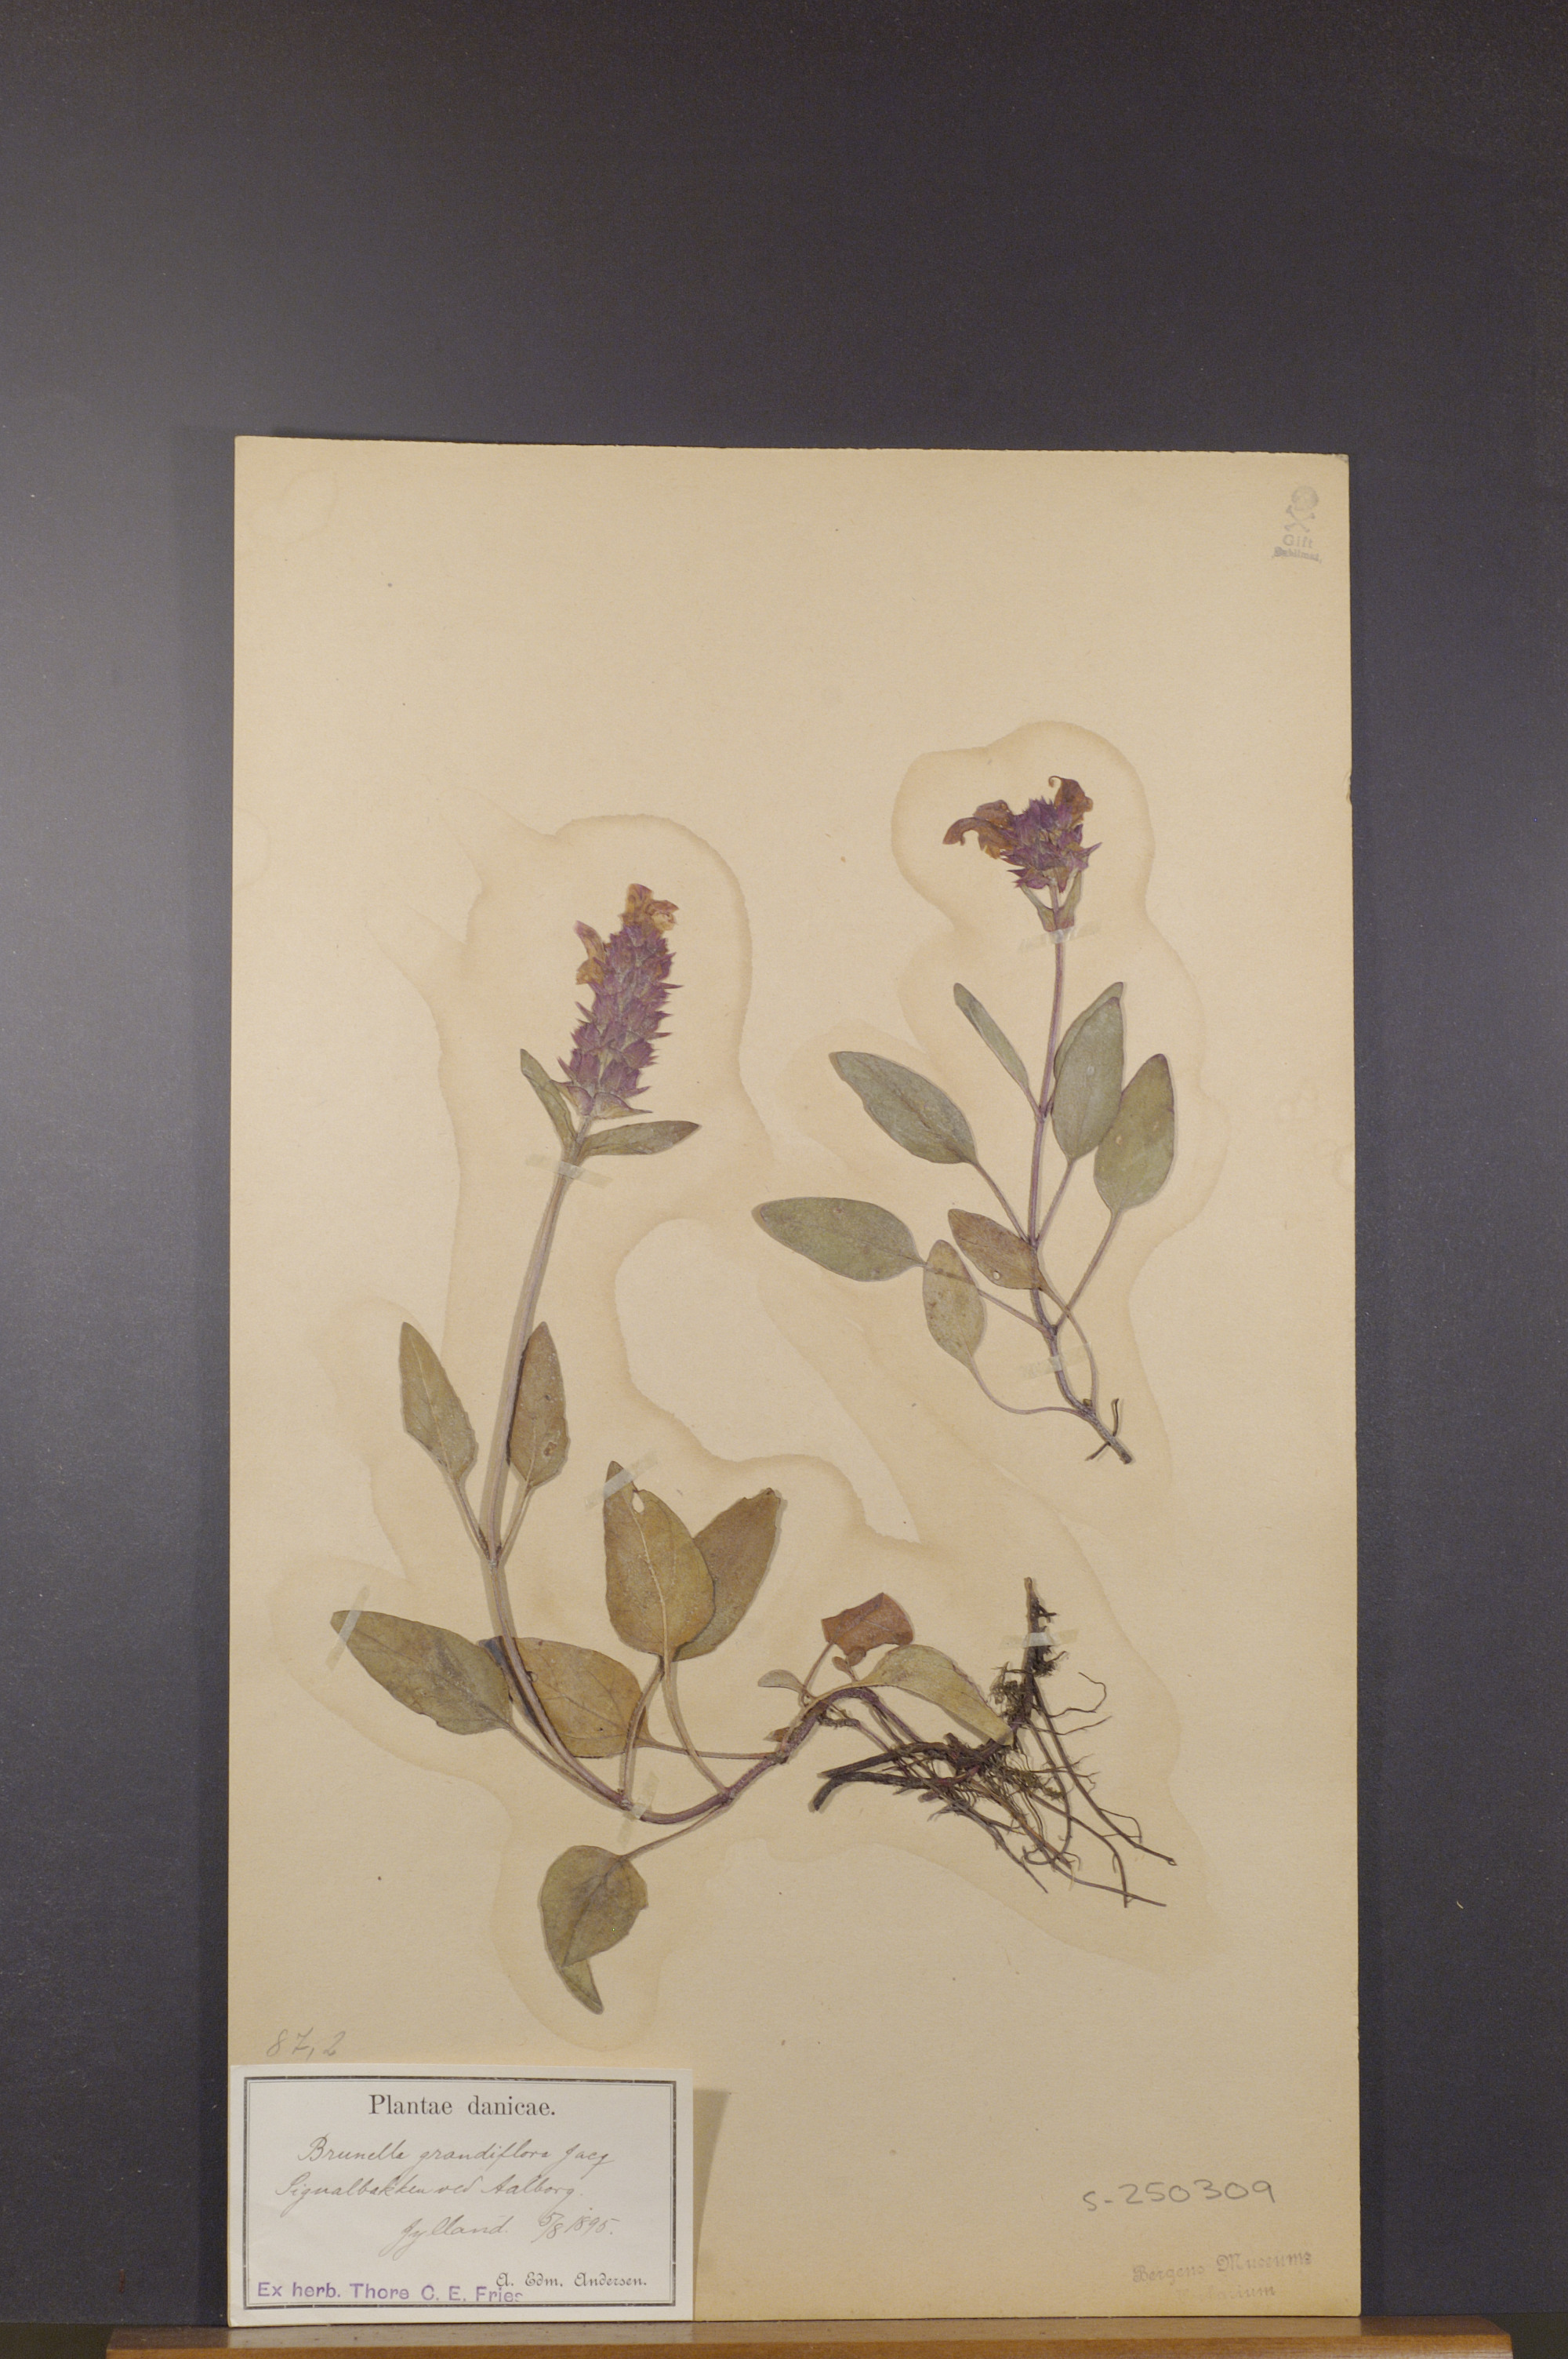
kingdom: Plantae
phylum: Tracheophyta
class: Magnoliopsida
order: Lamiales
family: Lamiaceae
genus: Prunella
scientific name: Prunella grandiflora
